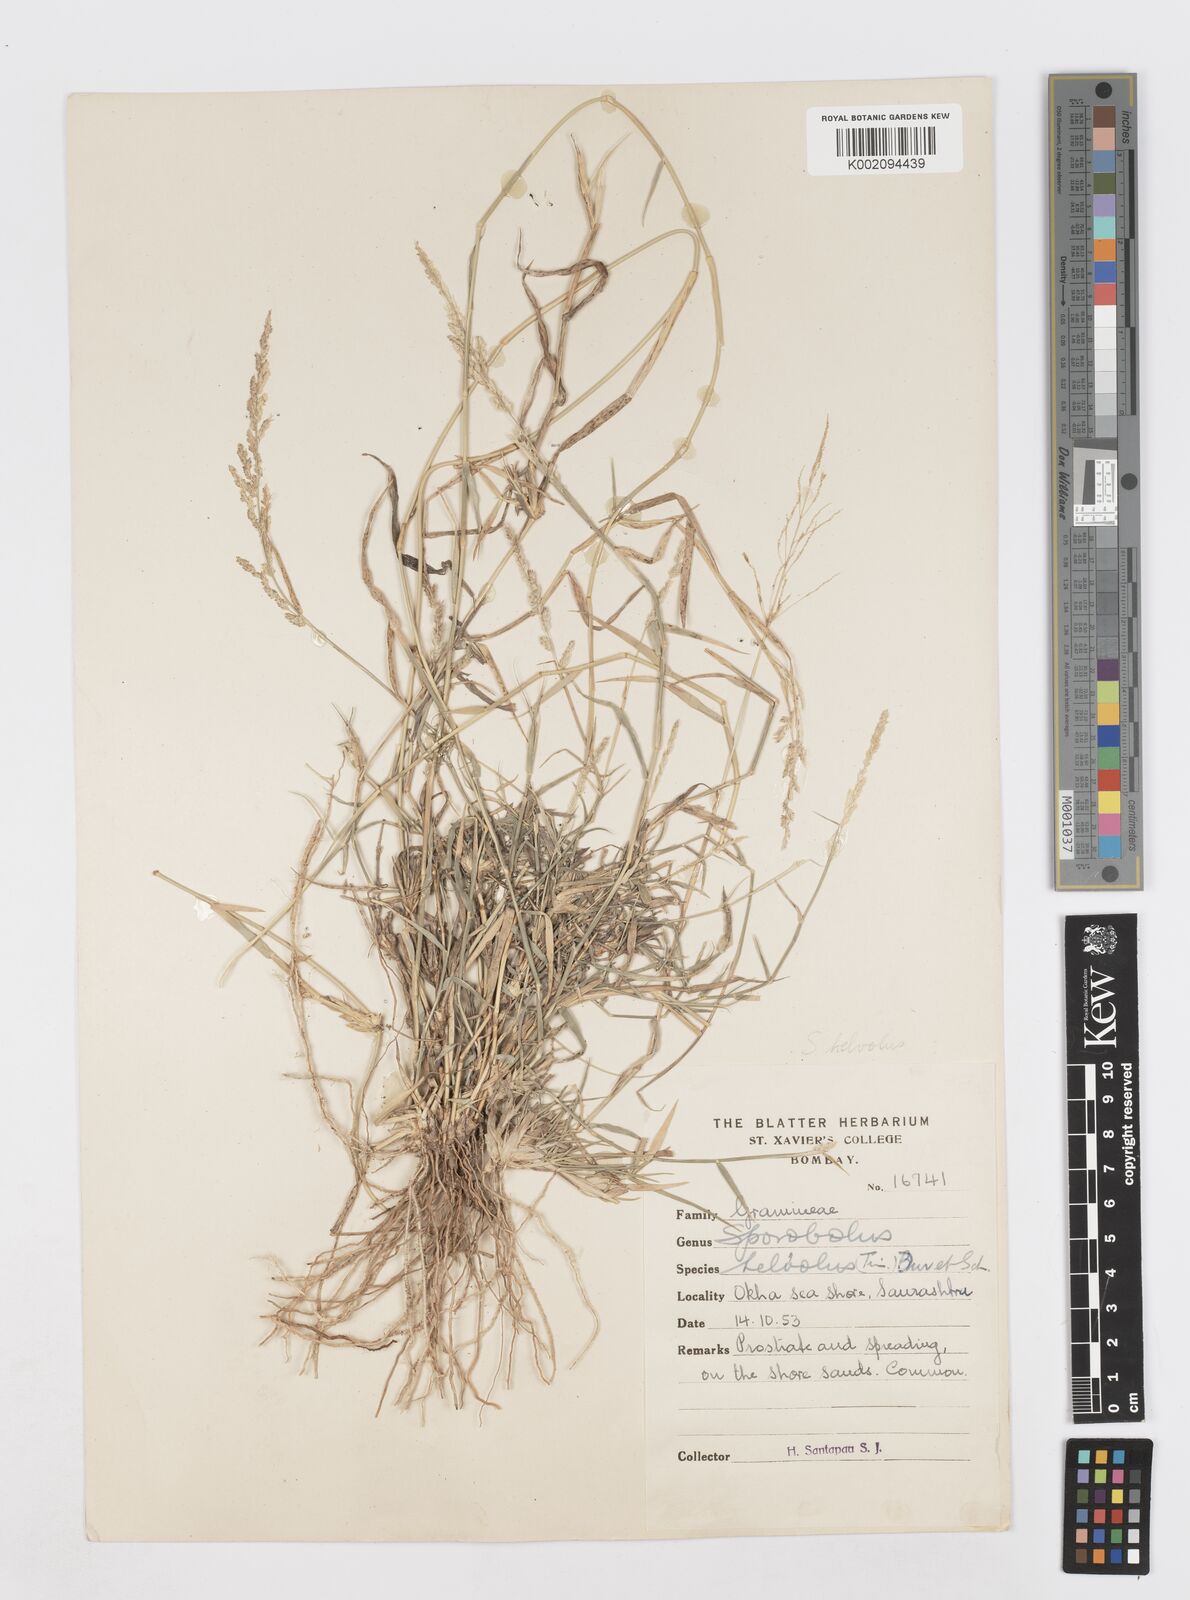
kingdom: Plantae
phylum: Tracheophyta
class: Liliopsida
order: Poales
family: Poaceae
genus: Sporobolus
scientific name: Sporobolus helvolus
